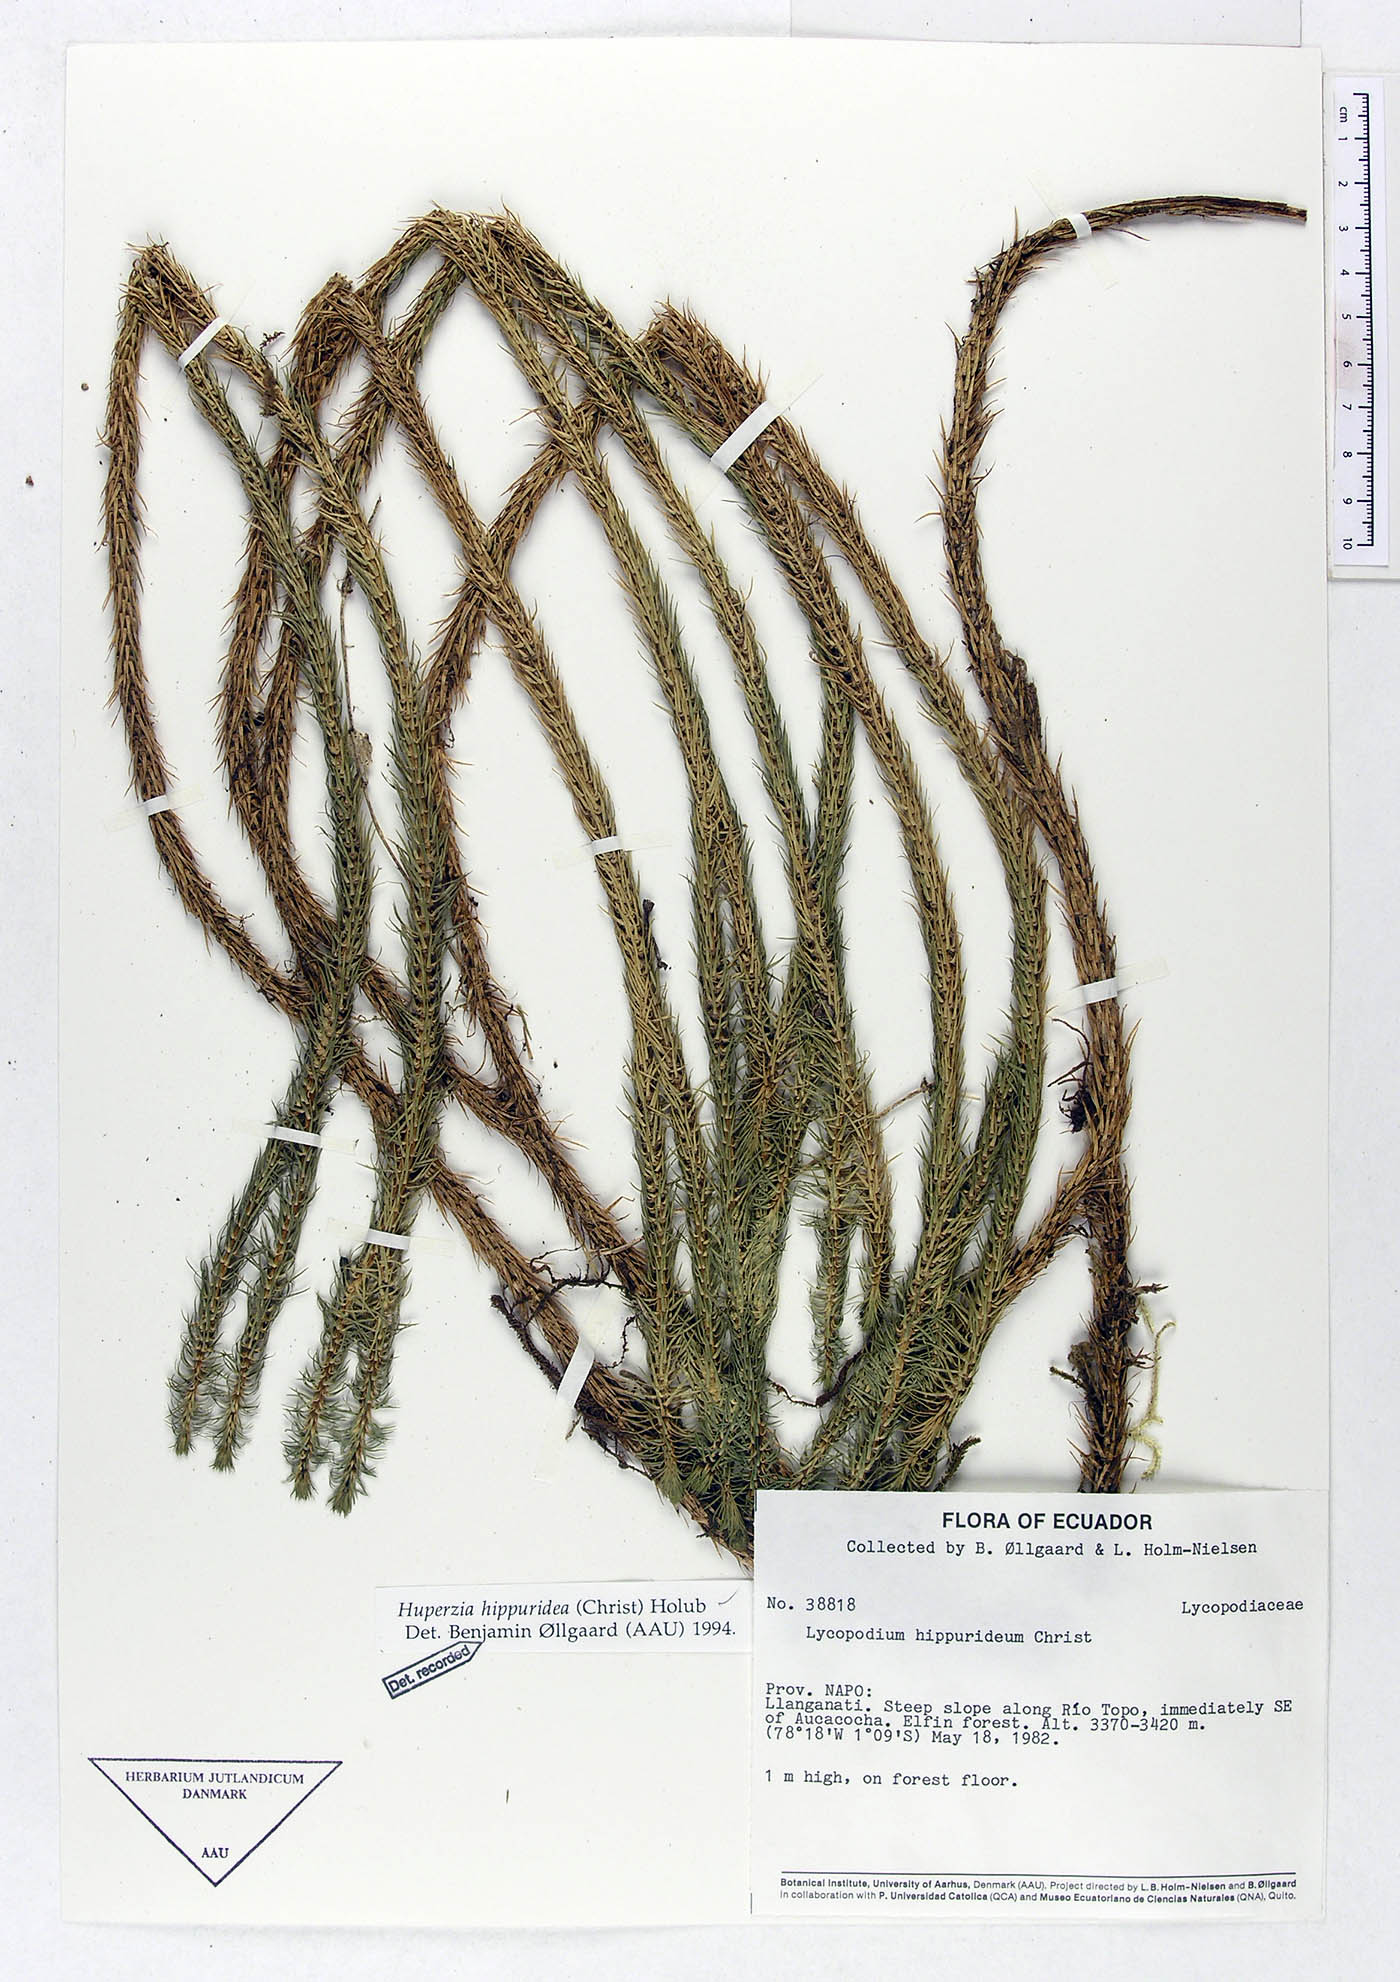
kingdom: Plantae
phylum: Tracheophyta
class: Lycopodiopsida
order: Lycopodiales
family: Lycopodiaceae
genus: Phlegmariurus
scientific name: Phlegmariurus hippurideus
